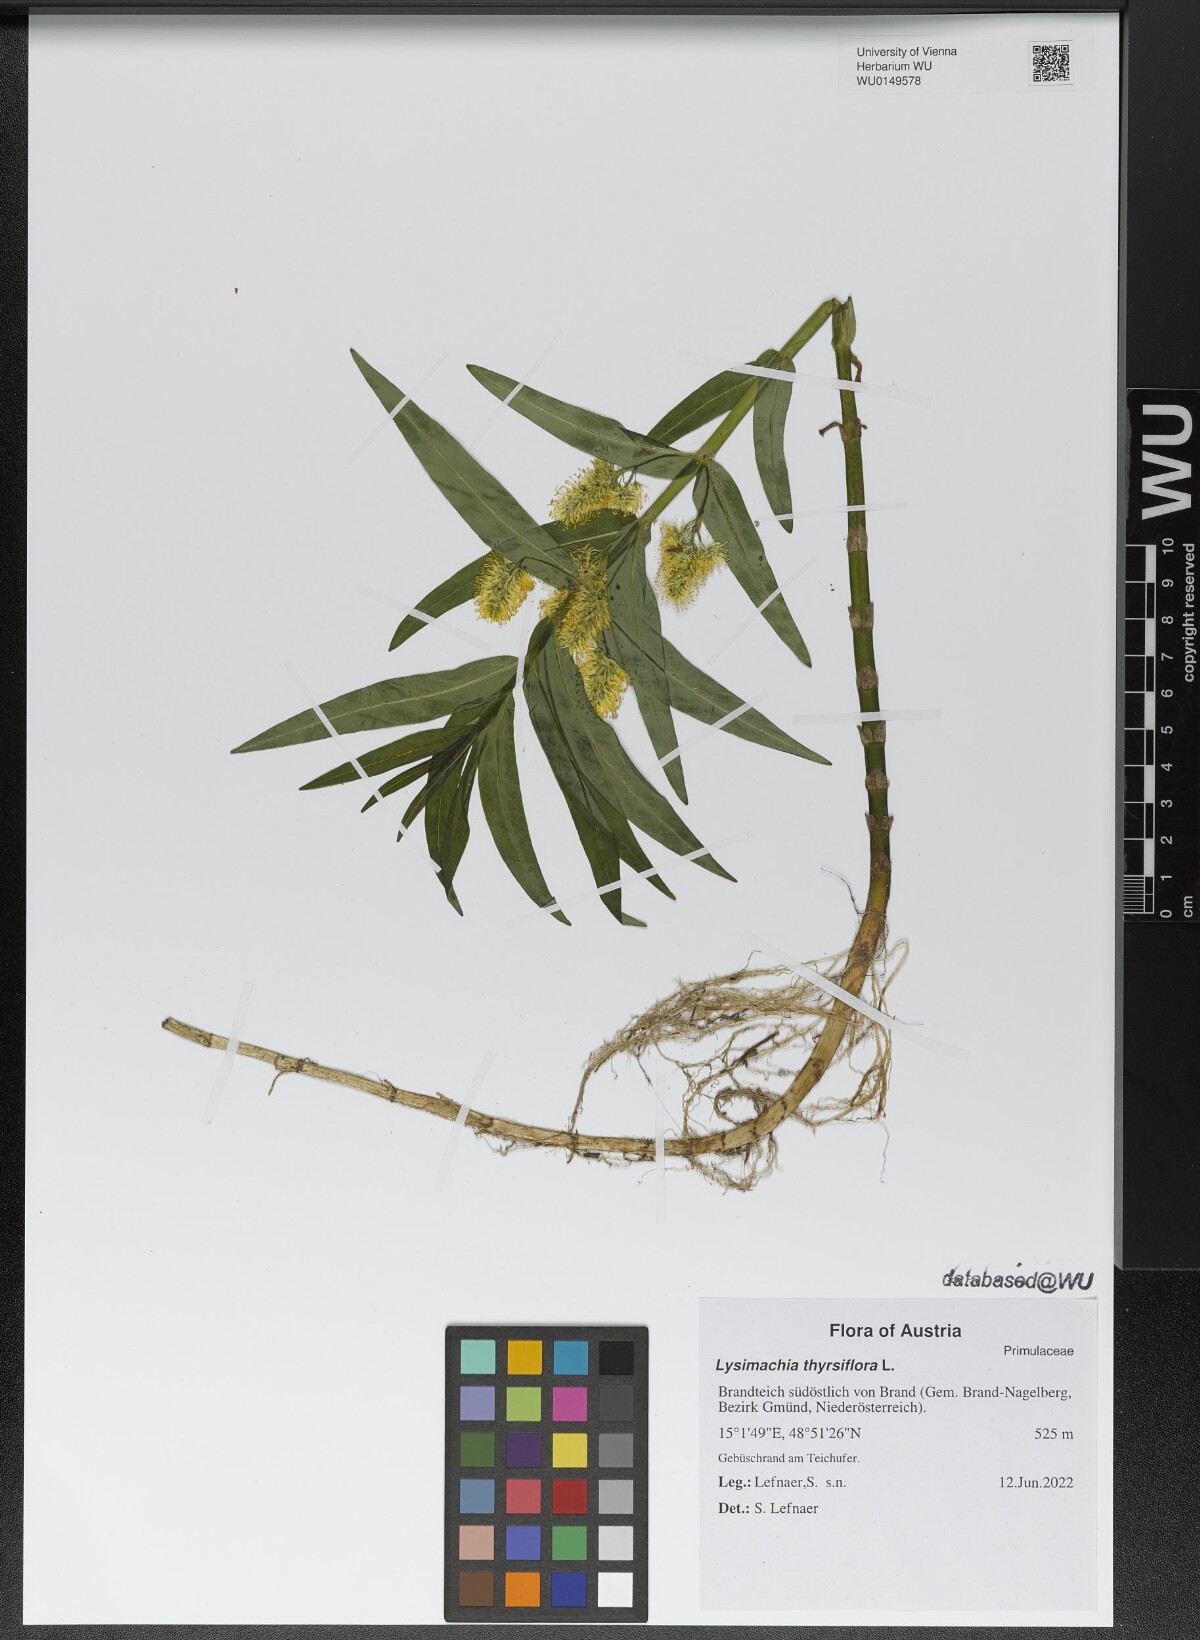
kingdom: Plantae
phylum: Tracheophyta
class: Magnoliopsida
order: Ericales
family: Primulaceae
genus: Lysimachia
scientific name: Lysimachia thyrsiflora
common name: Tufted loosestrife
